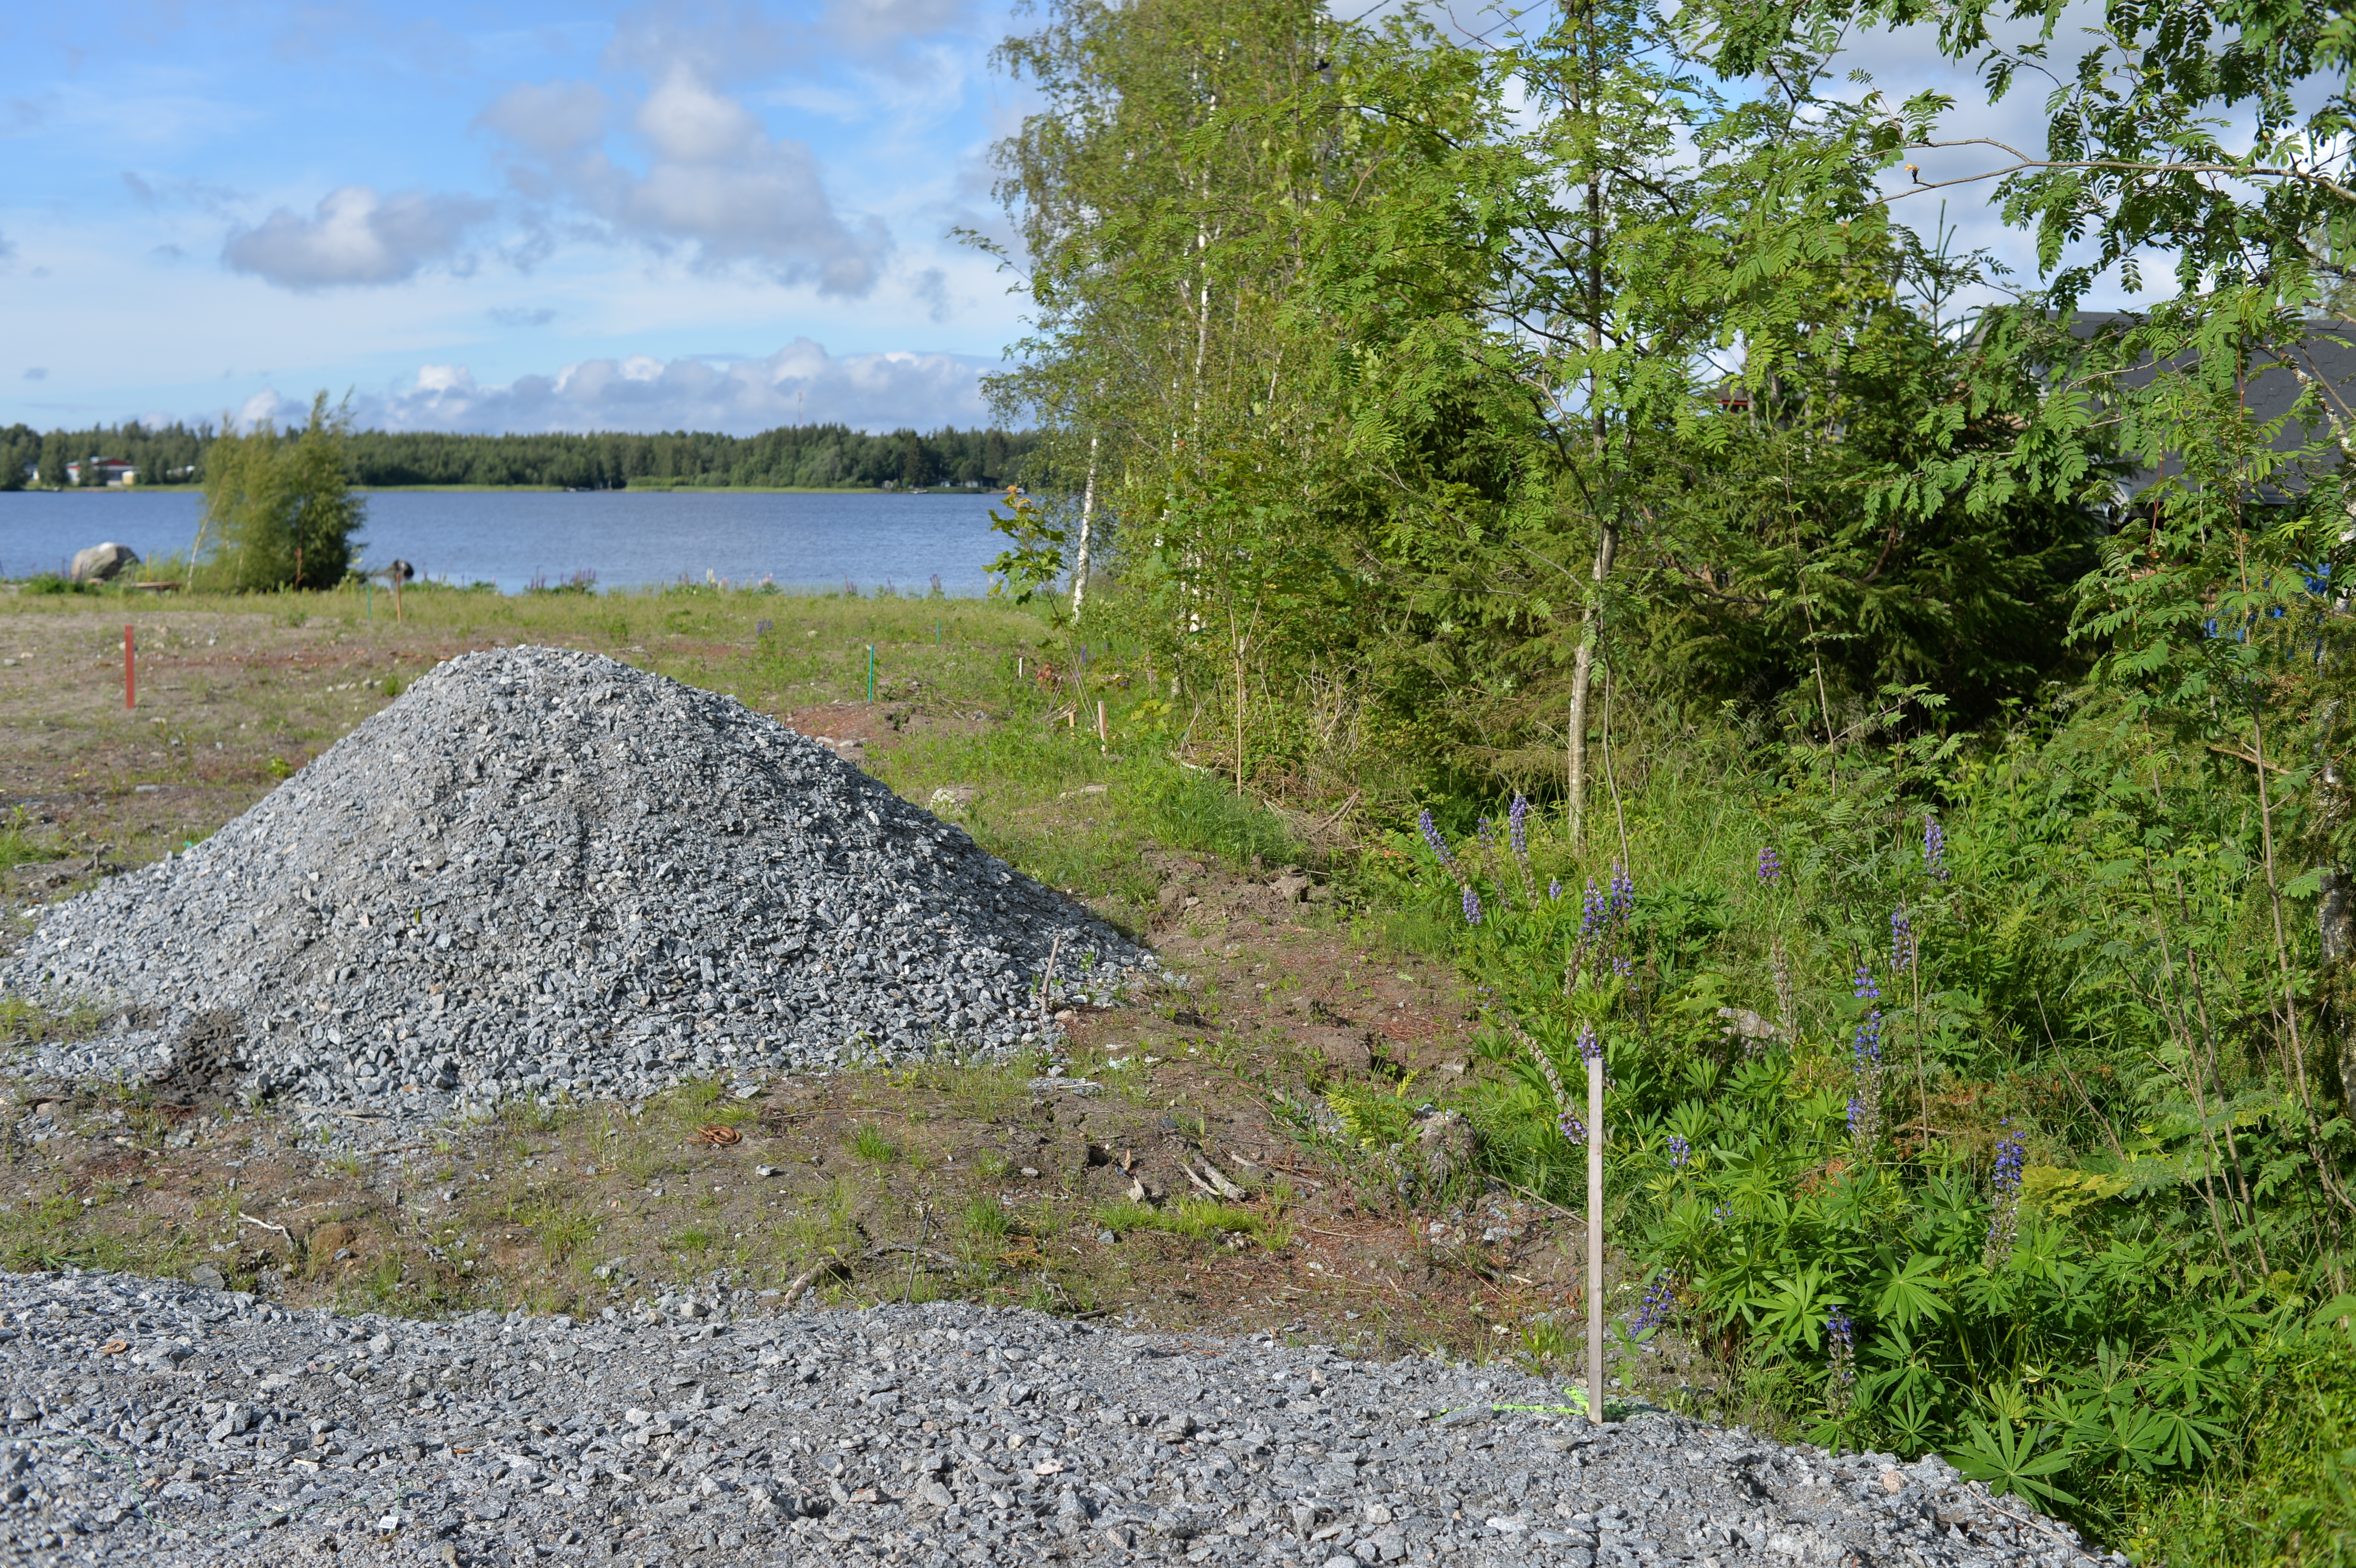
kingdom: Plantae
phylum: Tracheophyta
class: Magnoliopsida
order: Fabales
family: Fabaceae
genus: Lupinus
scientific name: Lupinus polyphyllus
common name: Garden lupin
